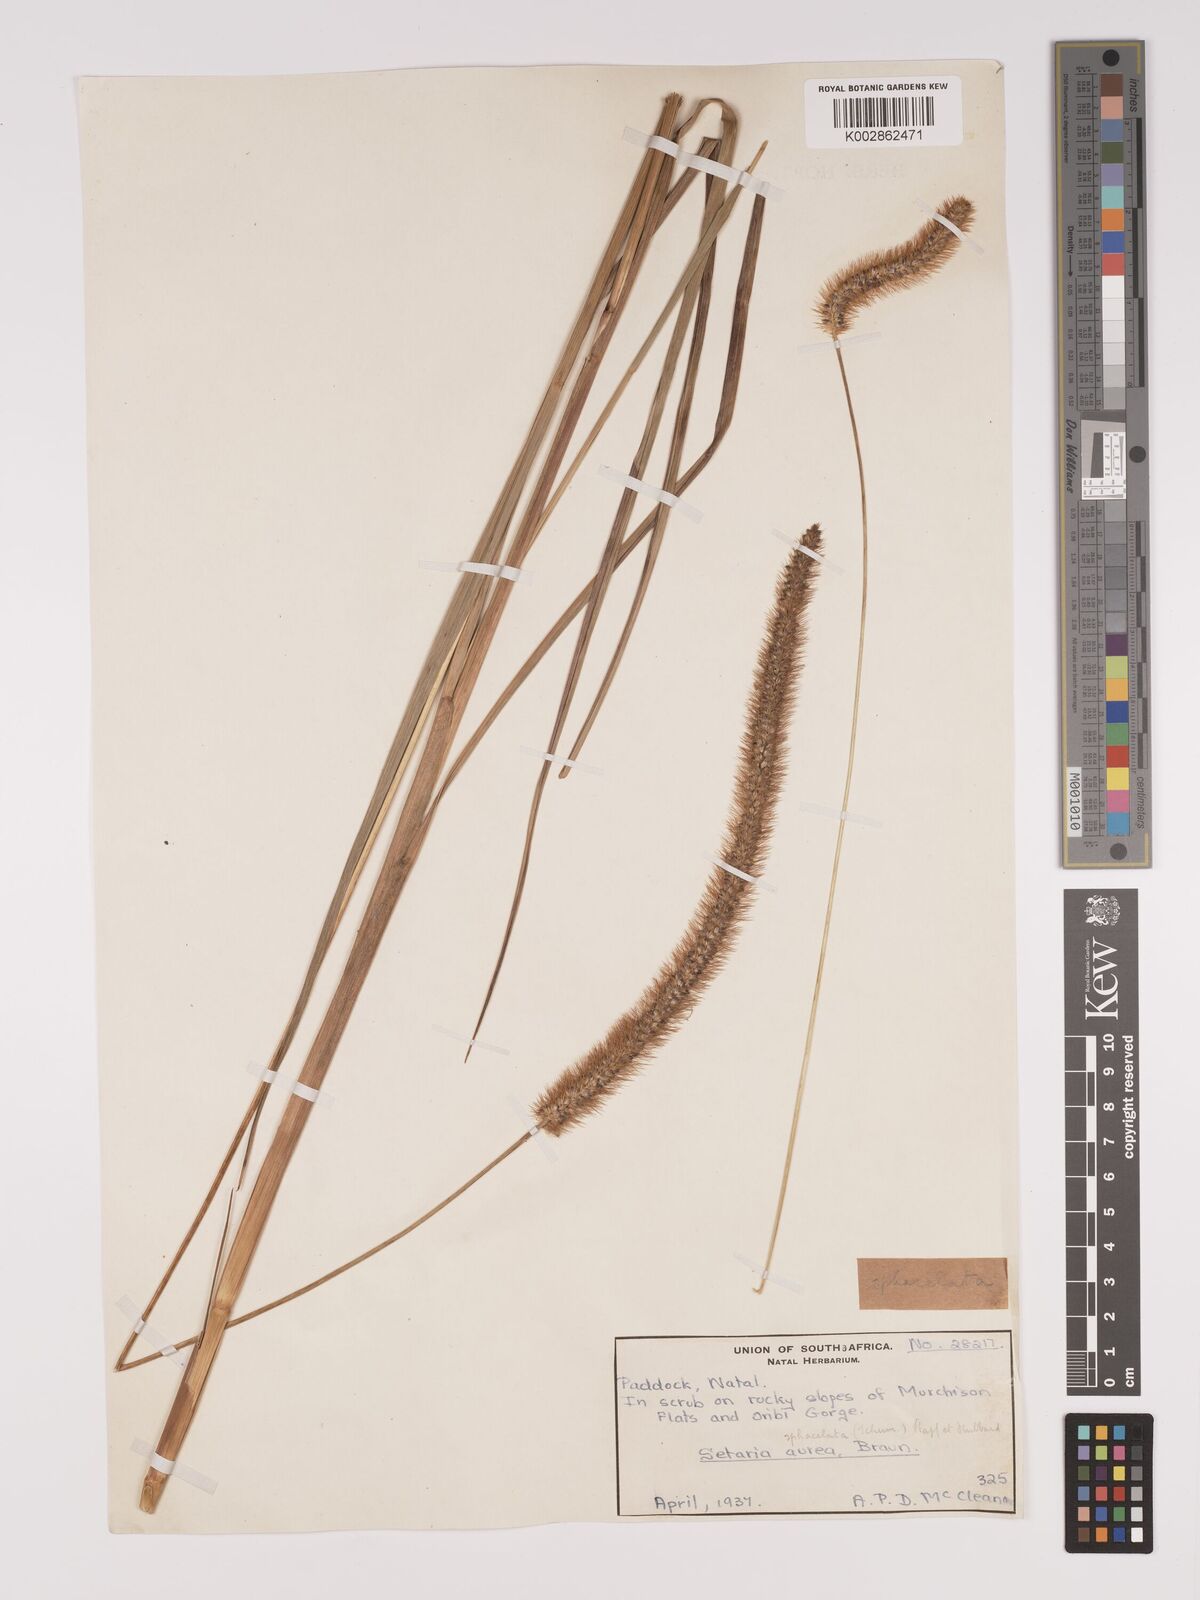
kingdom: Plantae
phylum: Tracheophyta
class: Liliopsida
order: Poales
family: Poaceae
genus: Setaria
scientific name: Setaria sphacelata
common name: African bristlegrass
